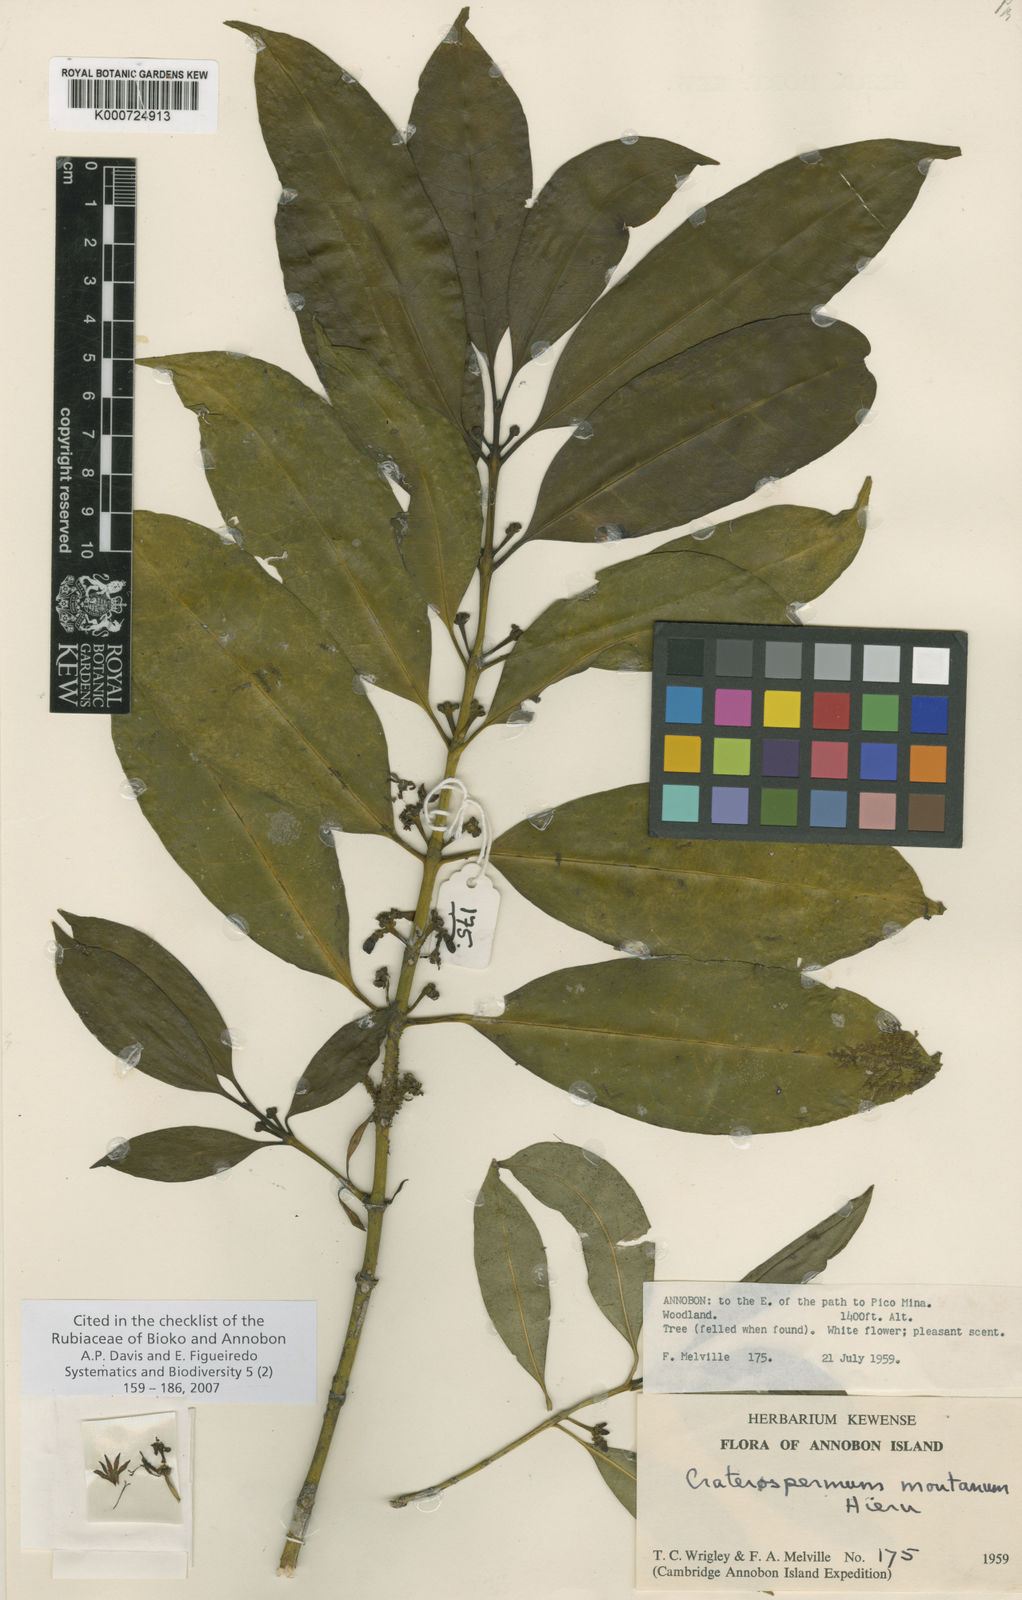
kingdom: Plantae
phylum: Tracheophyta
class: Magnoliopsida
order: Gentianales
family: Rubiaceae
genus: Craterispermum
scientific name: Craterispermum montanum
